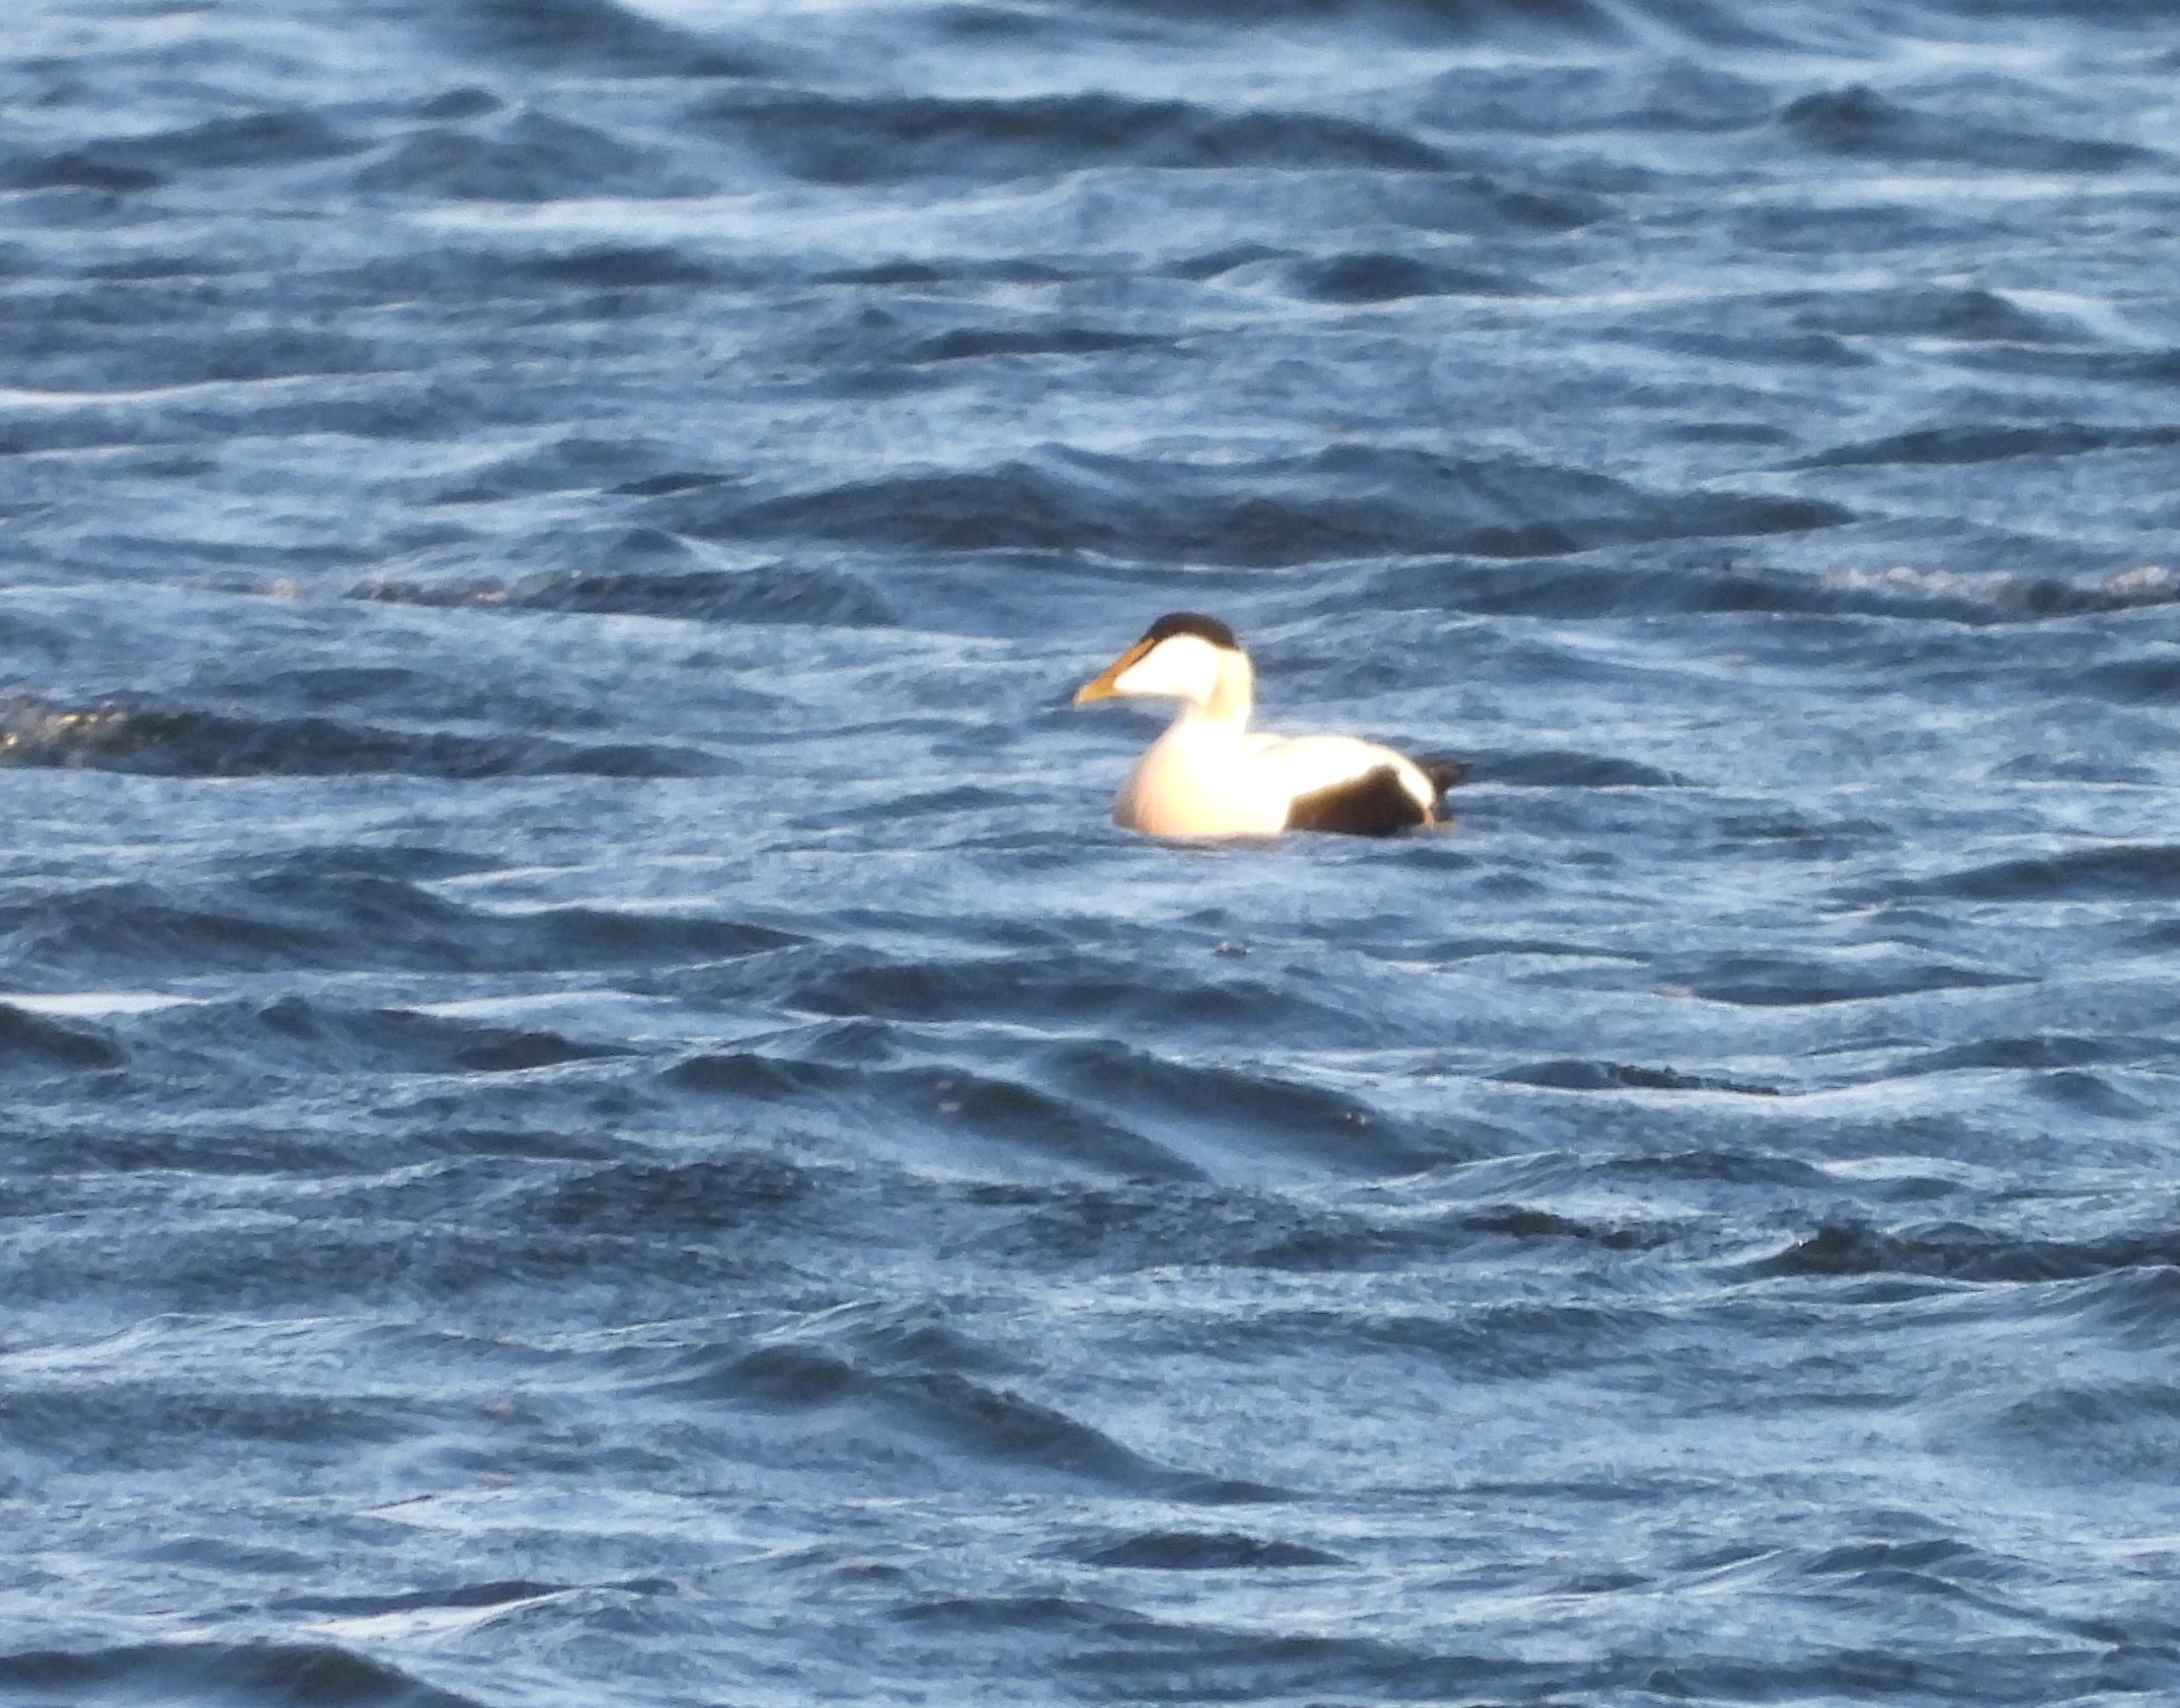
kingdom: Animalia
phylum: Chordata
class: Aves
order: Anseriformes
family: Anatidae
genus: Somateria
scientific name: Somateria mollissima
